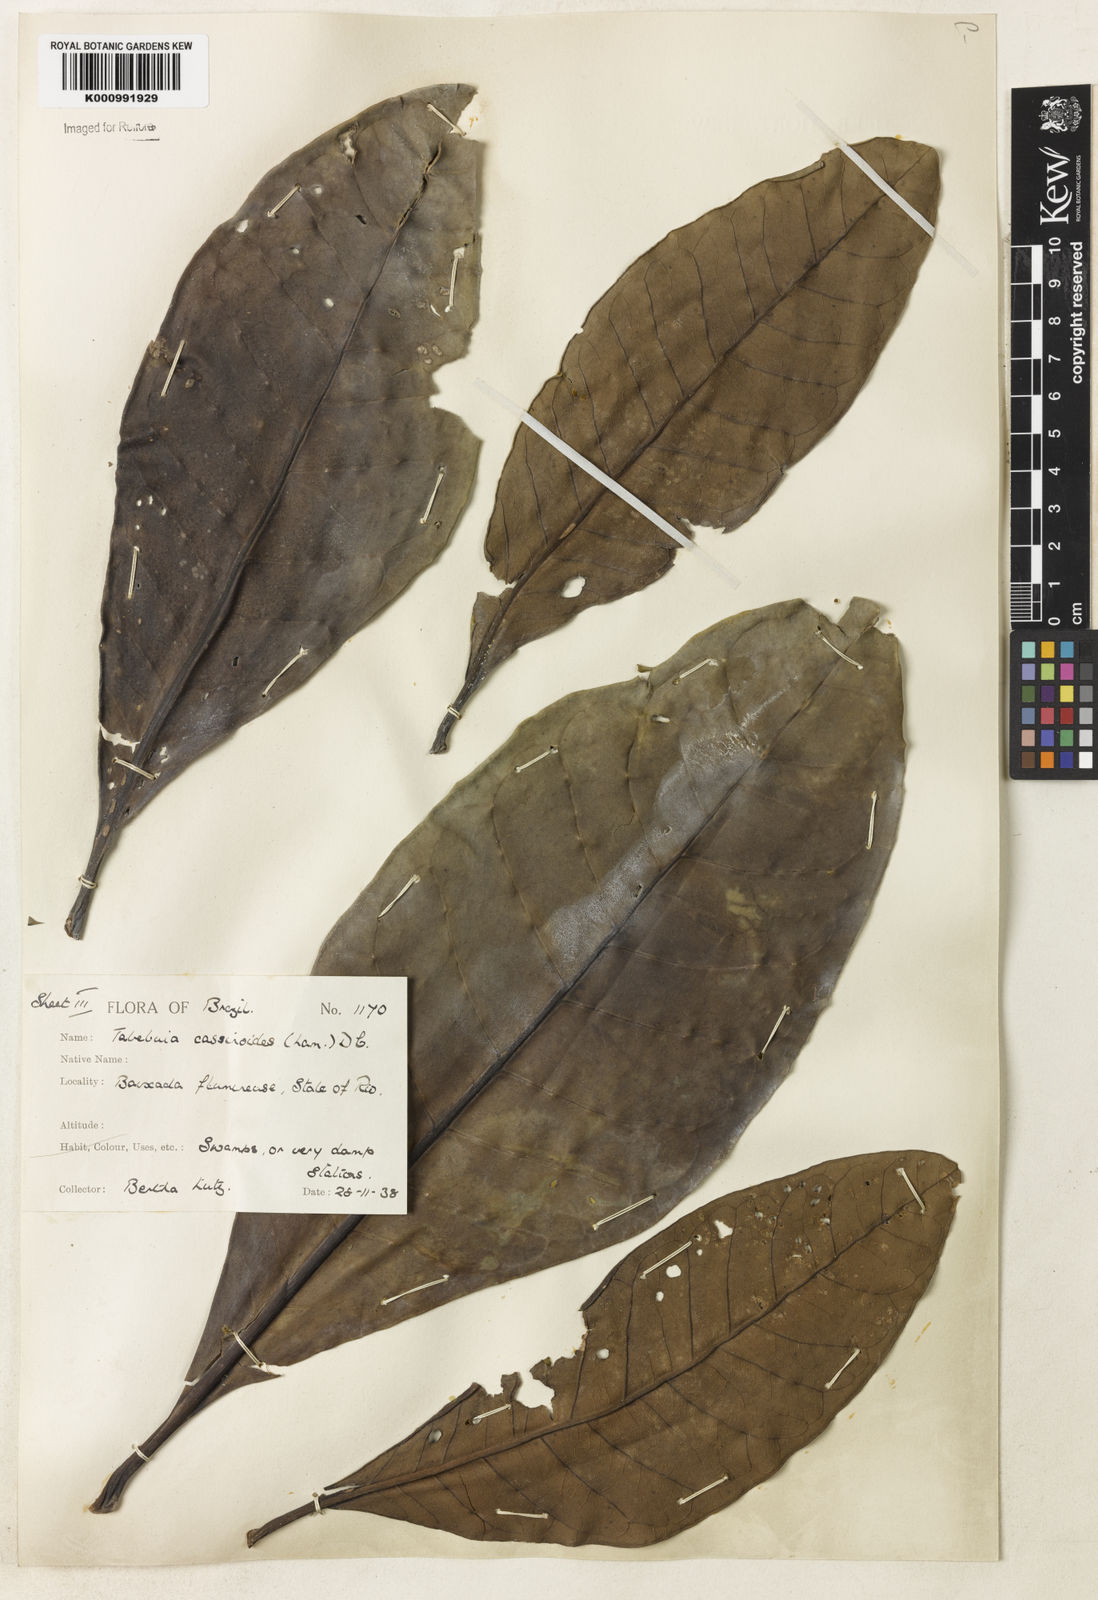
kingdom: Plantae
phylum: Tracheophyta
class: Magnoliopsida
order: Lamiales
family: Bignoniaceae
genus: Tabebuia
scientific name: Tabebuia cassinoides
